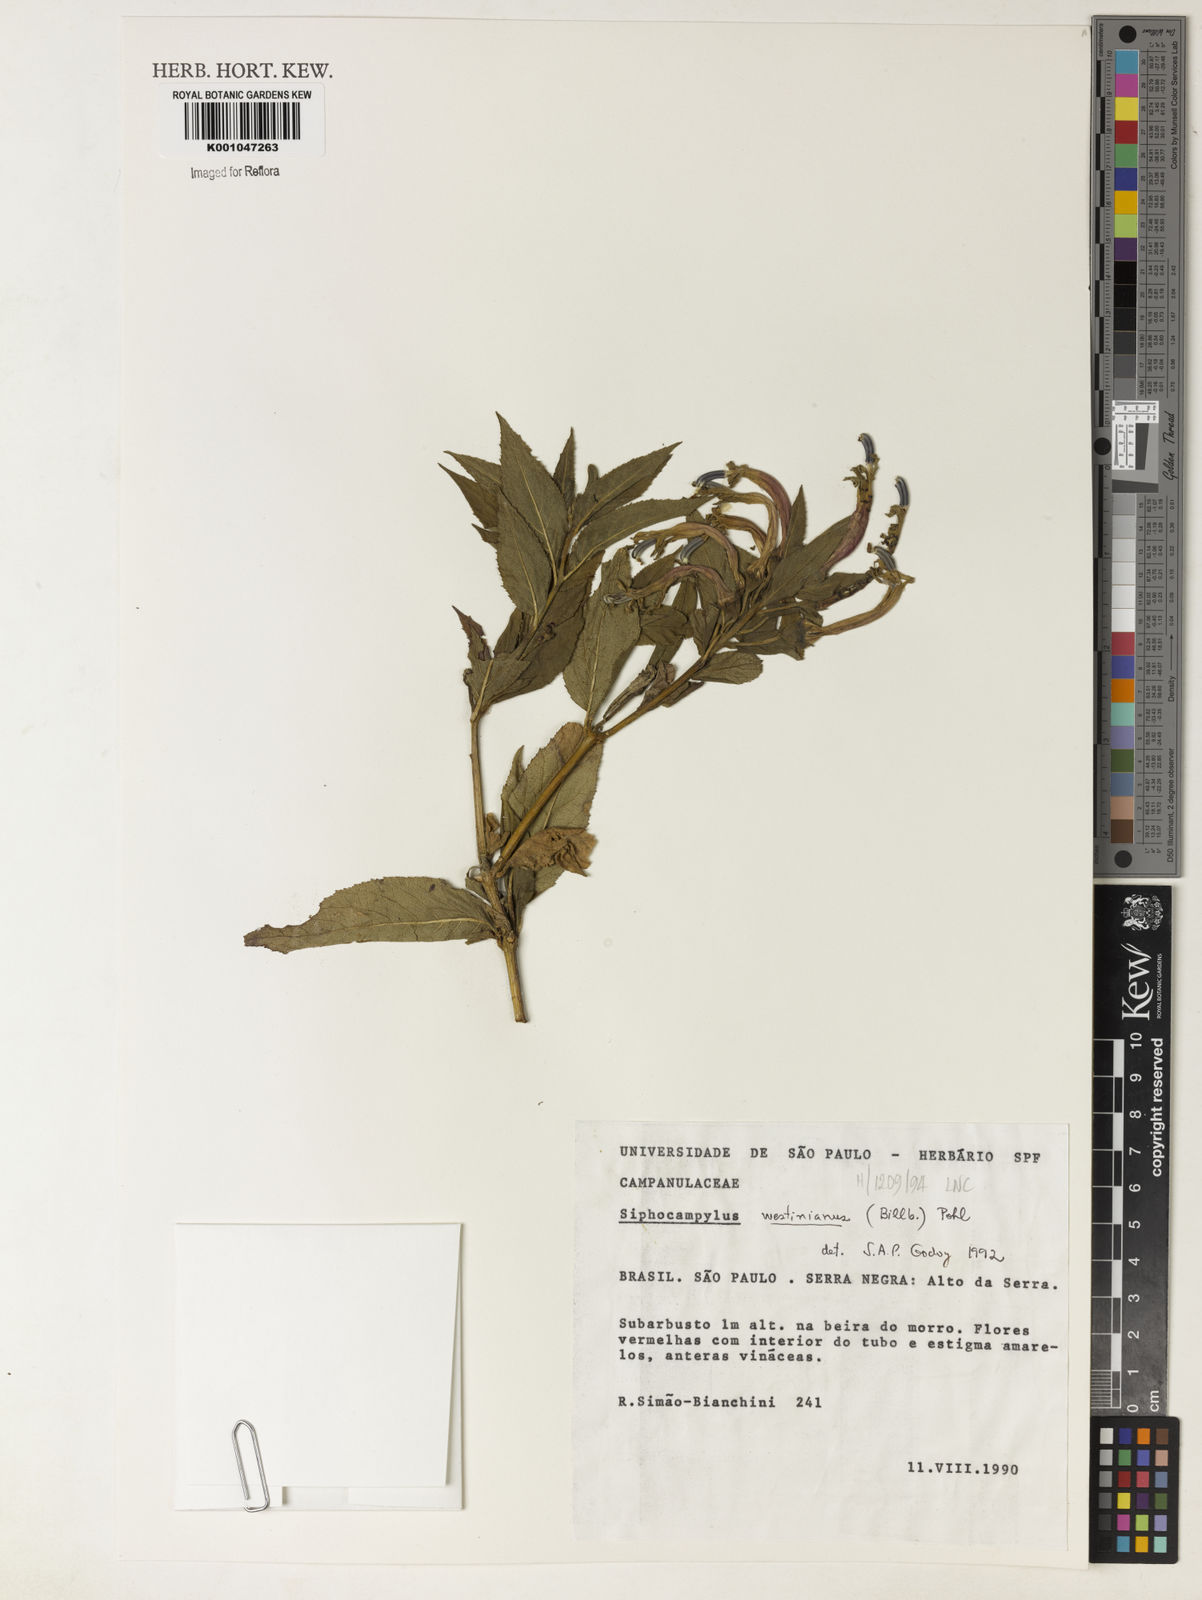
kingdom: Plantae
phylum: Tracheophyta
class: Magnoliopsida
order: Asterales
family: Campanulaceae
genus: Siphocampylus
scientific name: Siphocampylus westinianus
